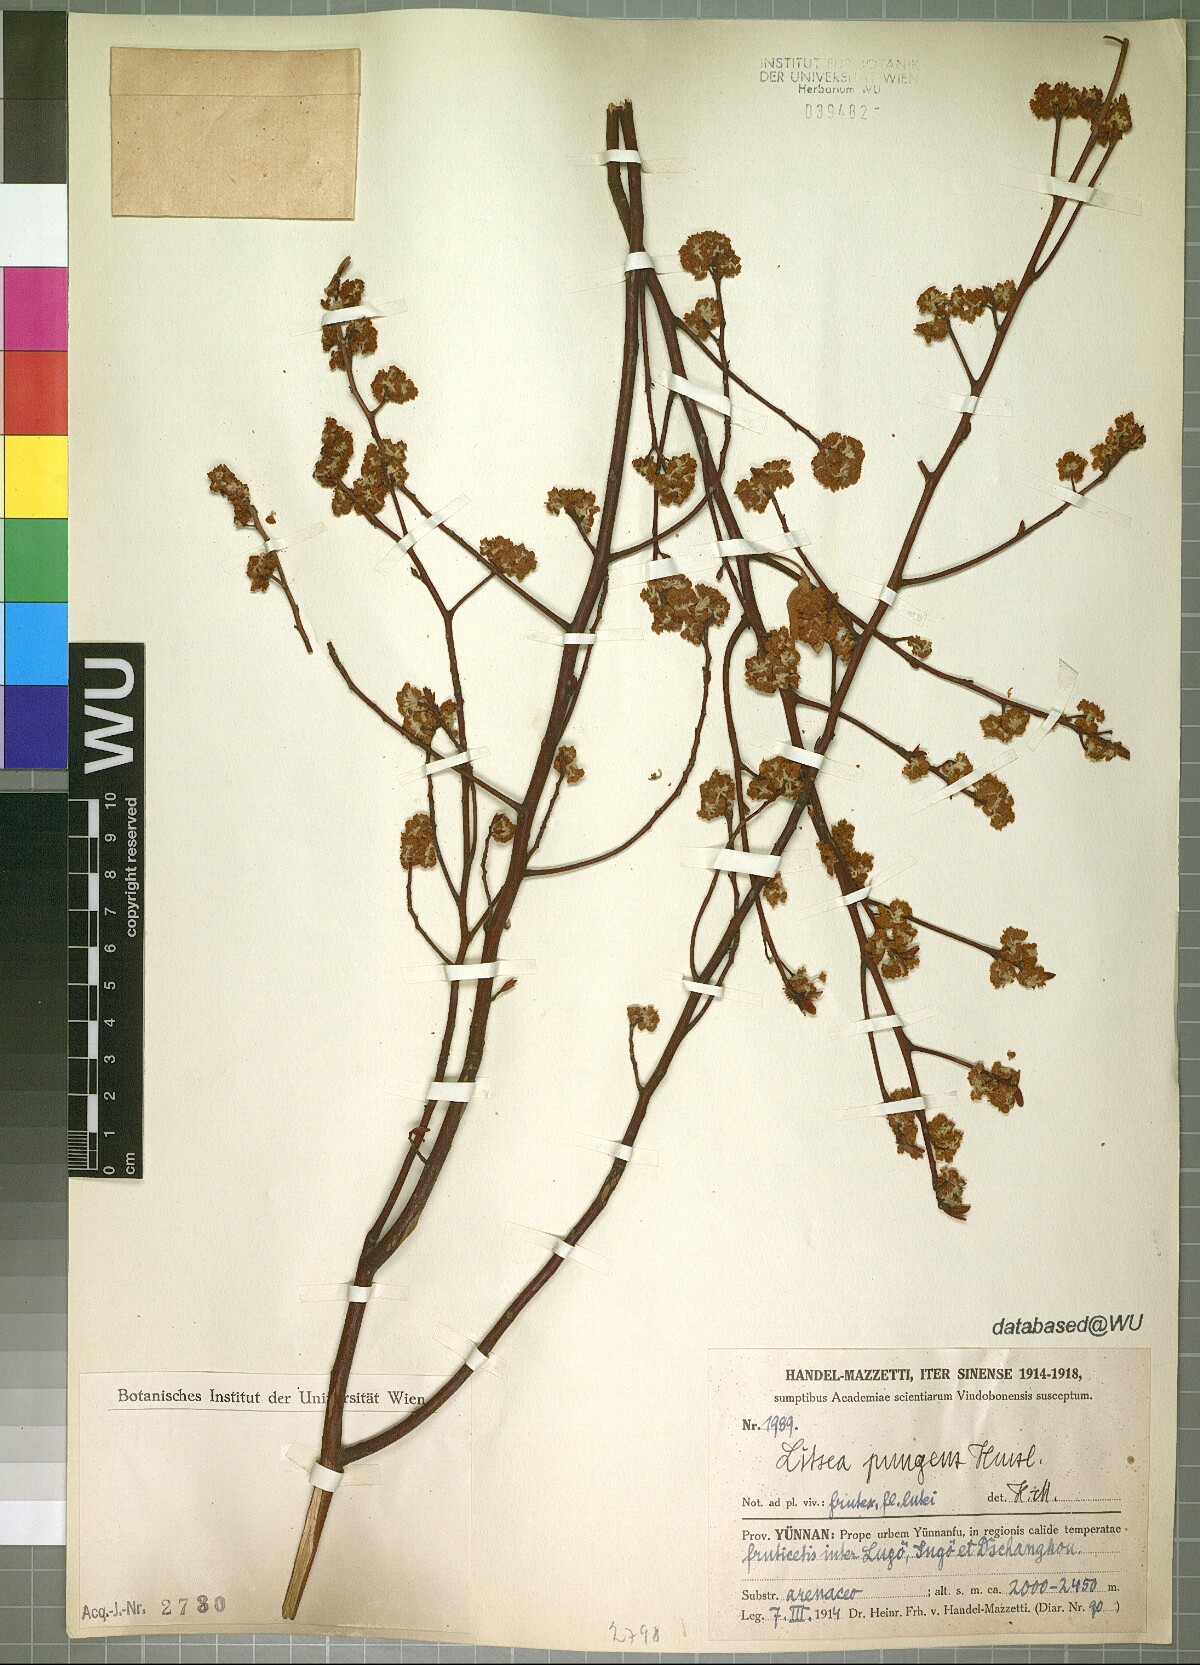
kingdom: Plantae
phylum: Tracheophyta
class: Magnoliopsida
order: Laurales
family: Lauraceae
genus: Litsea
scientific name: Litsea pungens
